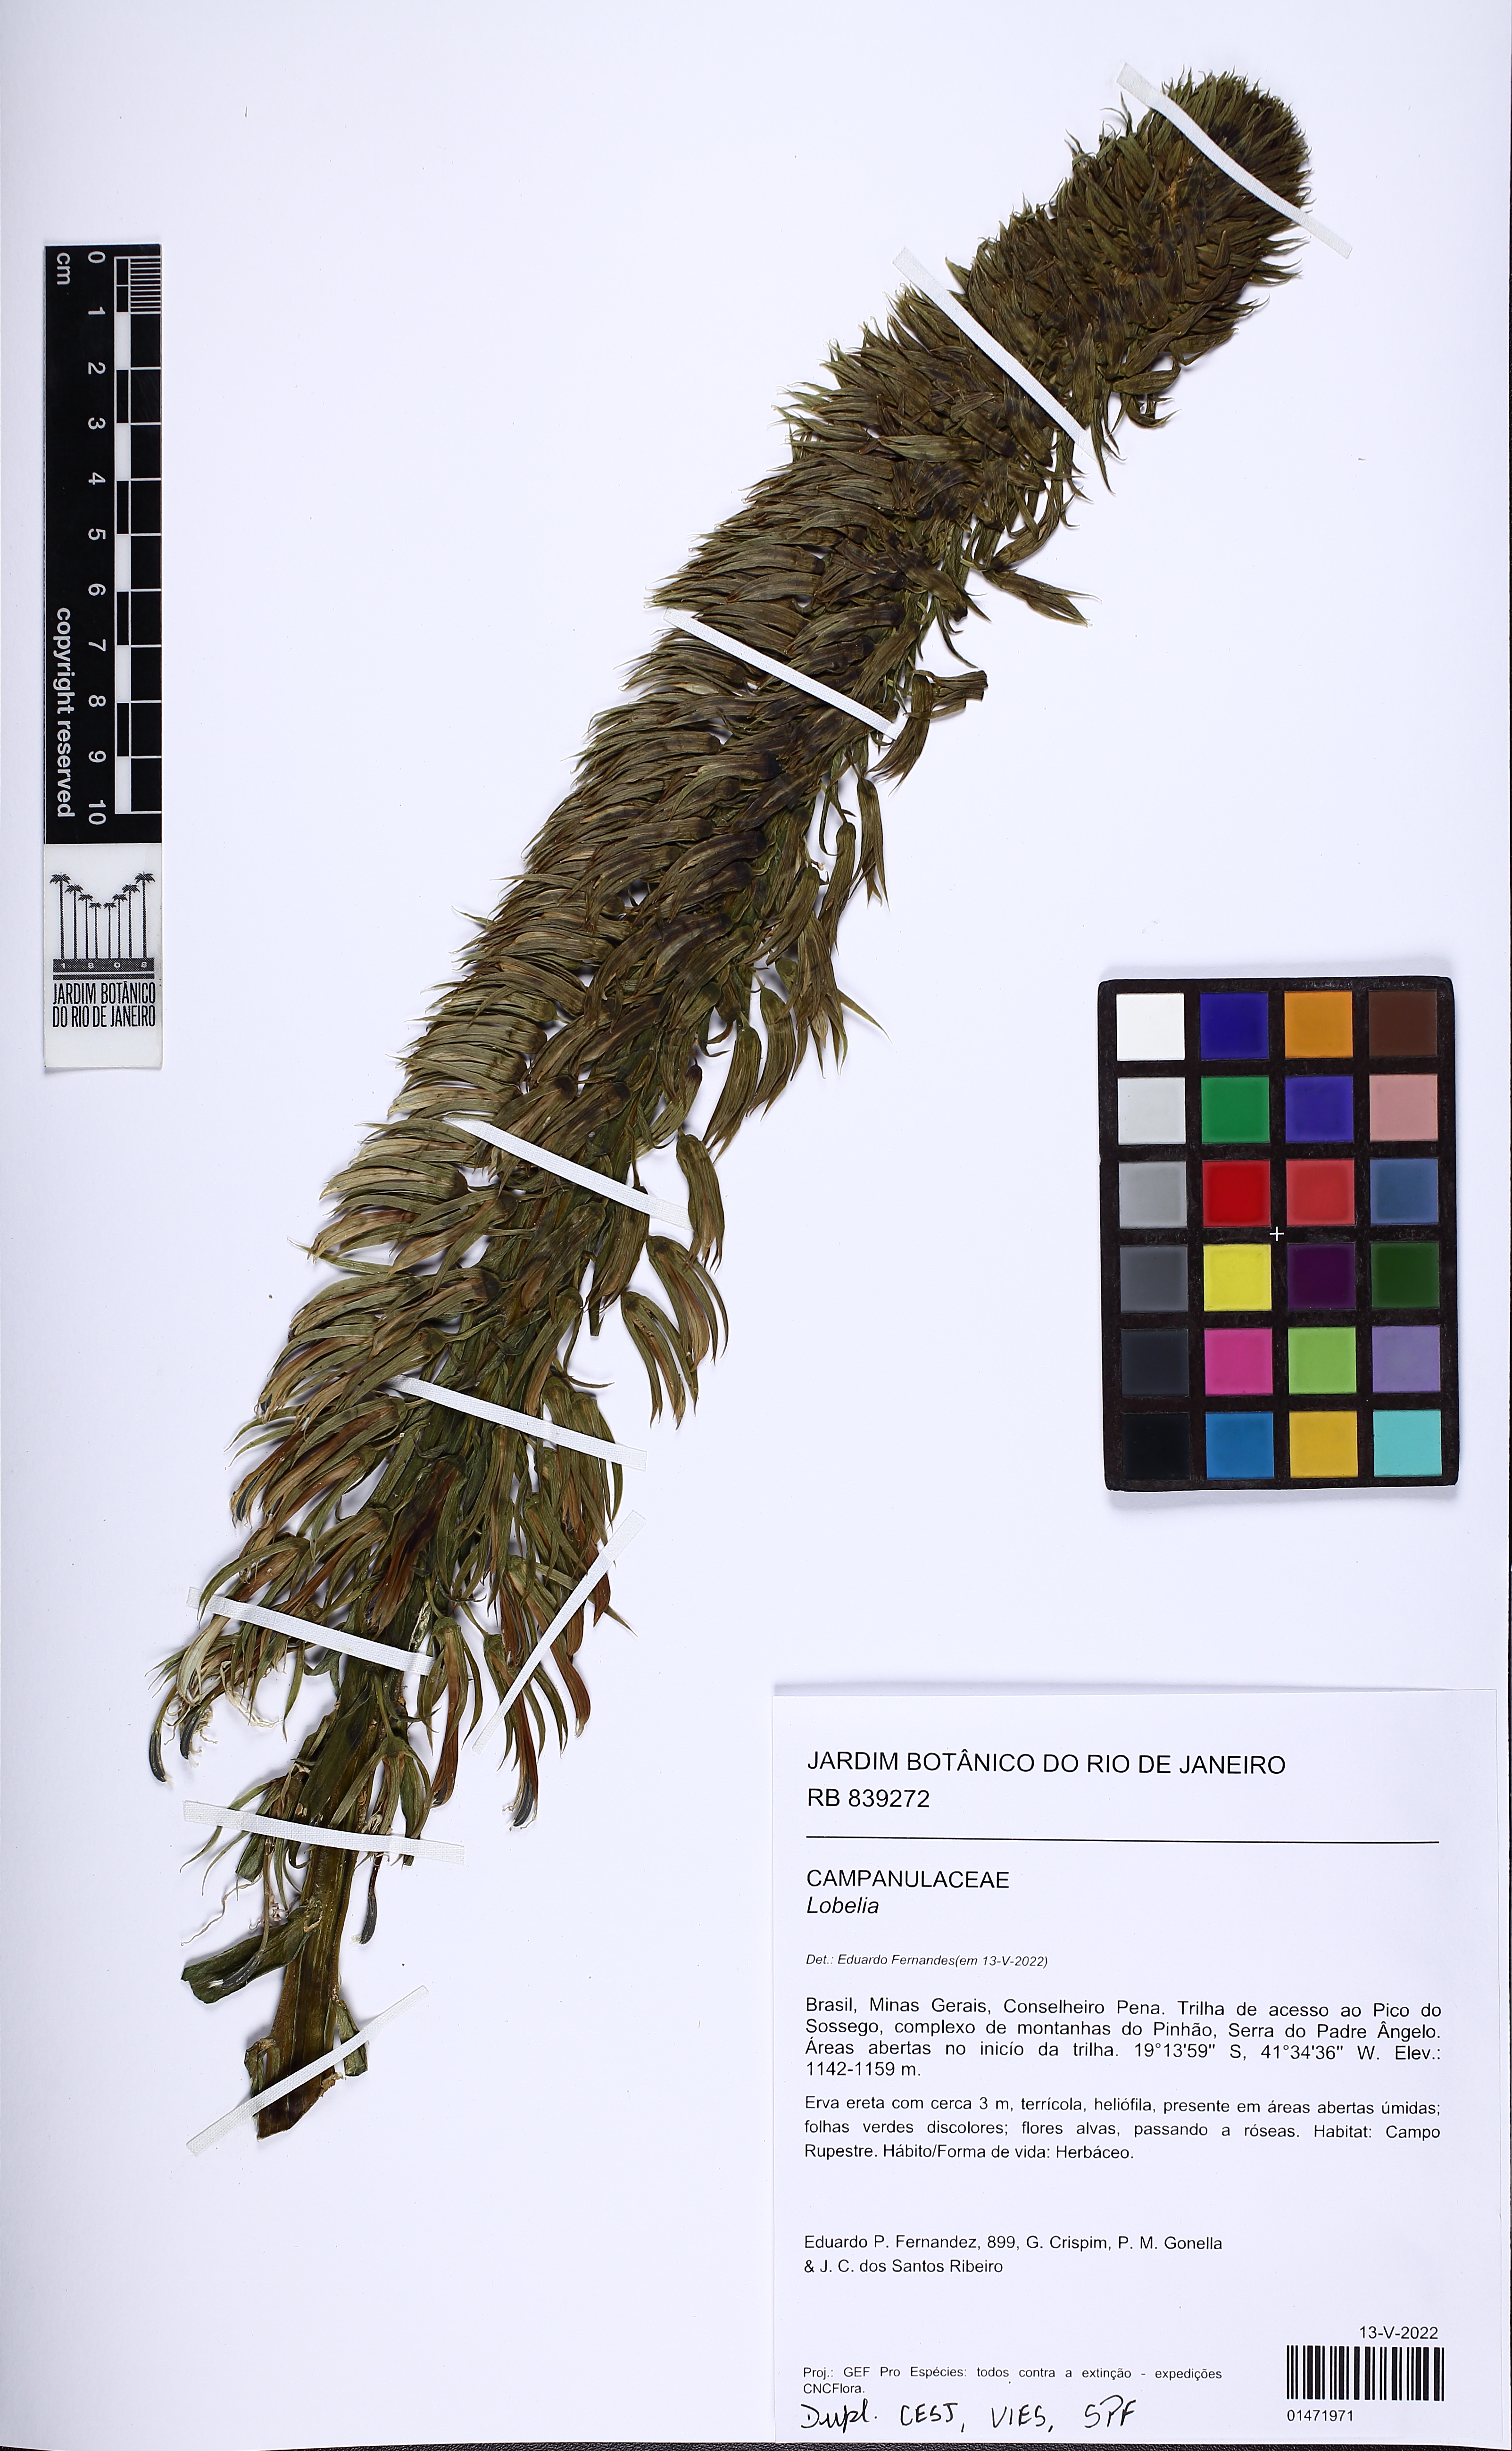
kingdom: Plantae
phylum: Tracheophyta
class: Magnoliopsida
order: Asterales
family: Campanulaceae
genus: Lobelia
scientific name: Lobelia
